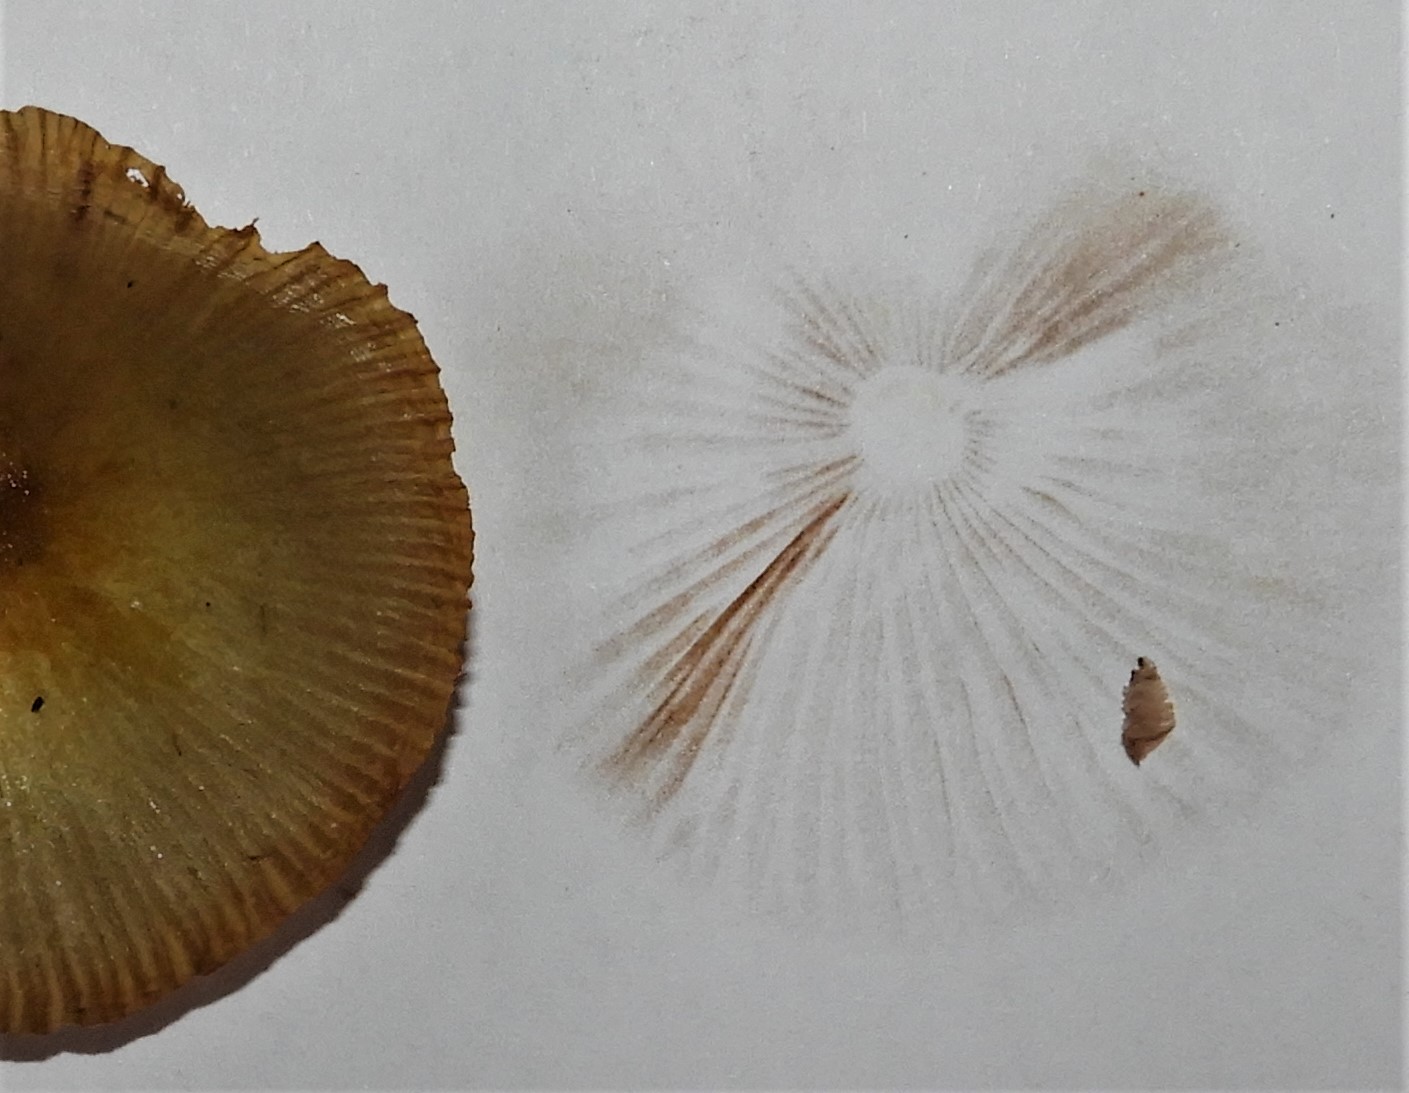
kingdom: Fungi
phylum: Basidiomycota
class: Agaricomycetes
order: Agaricales
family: Bolbitiaceae
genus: Bolbitius
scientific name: Bolbitius titubans
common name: almindelig gulhat
